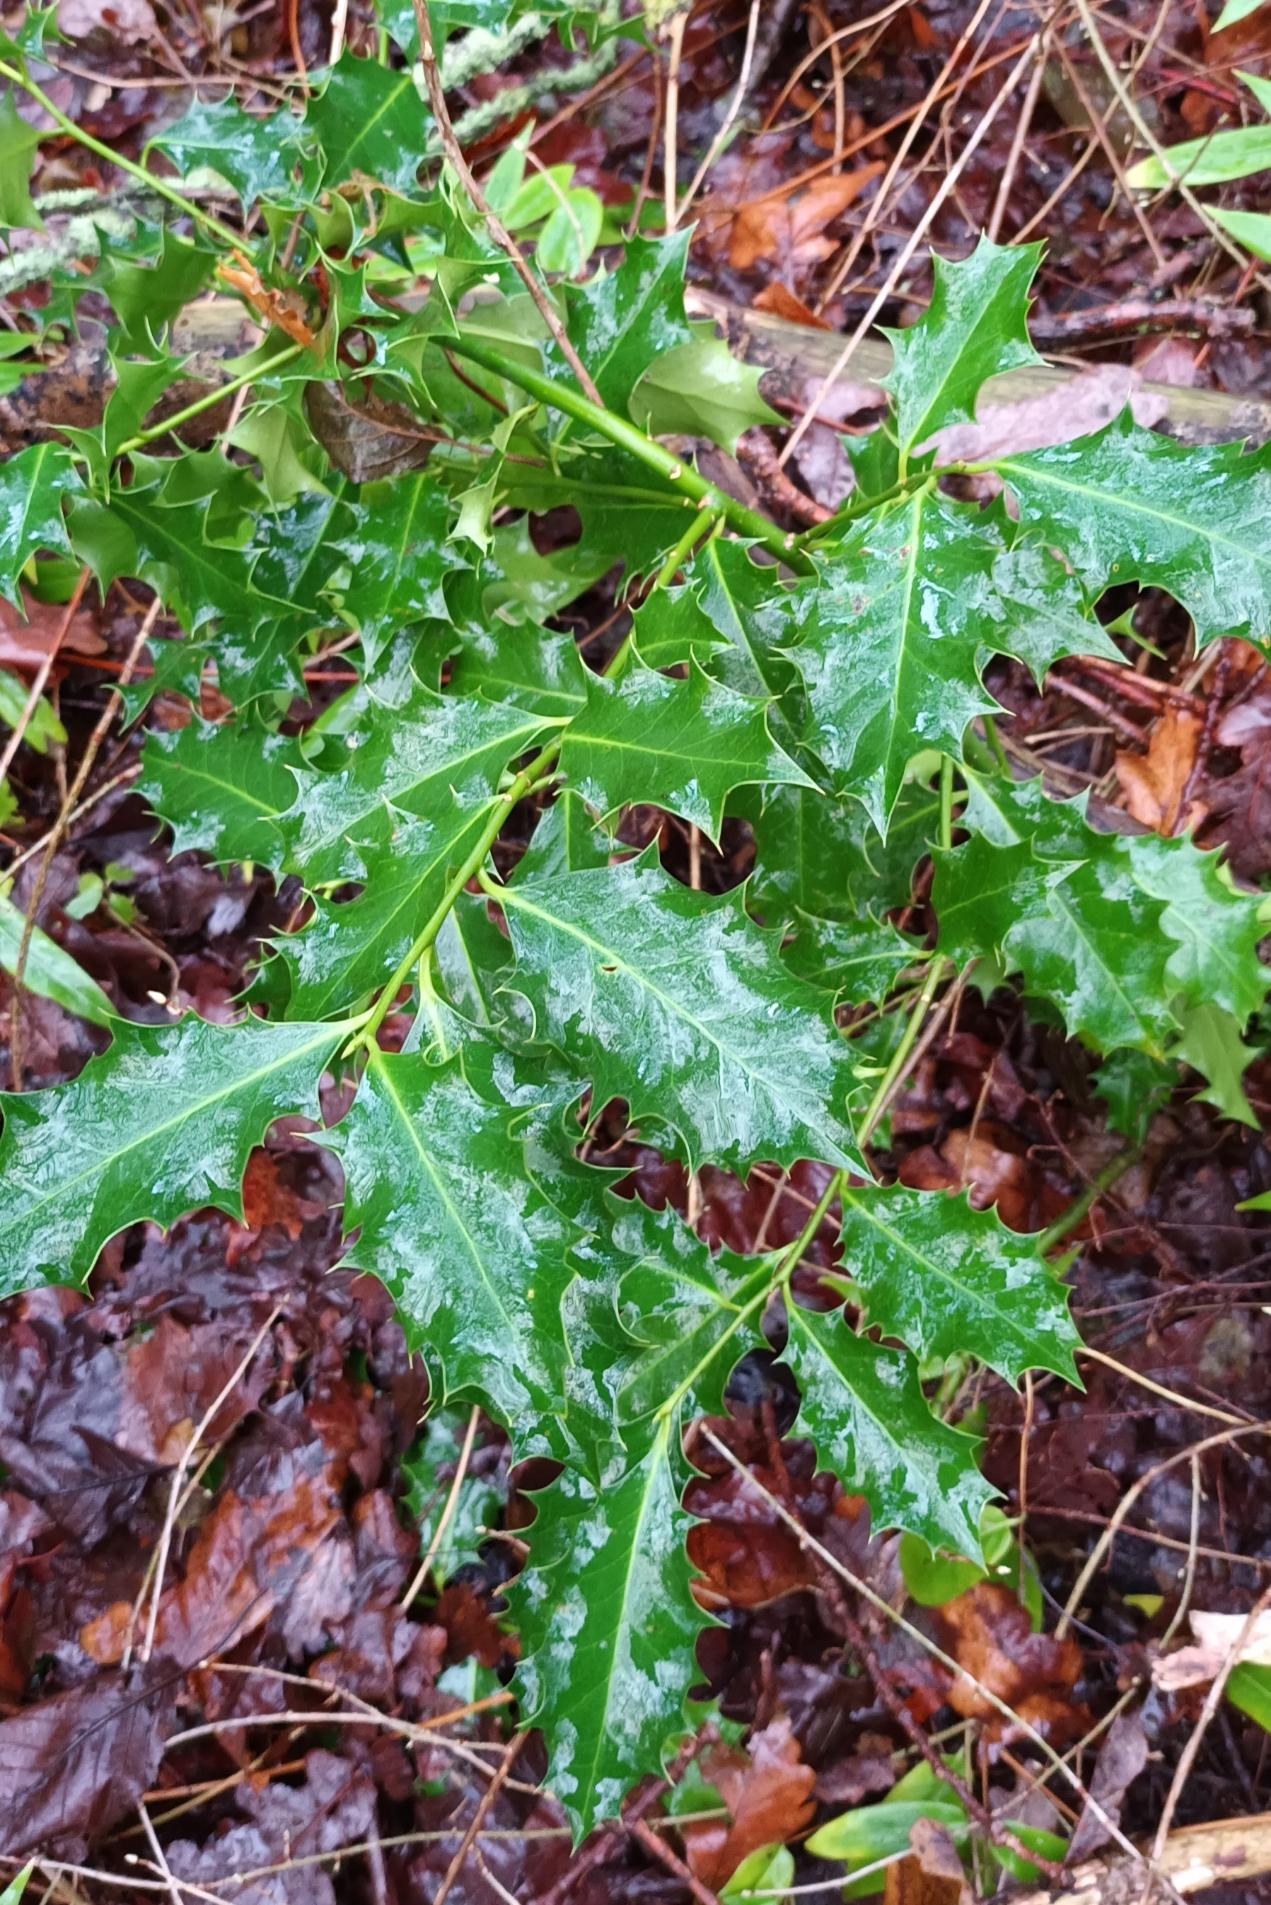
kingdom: Plantae
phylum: Tracheophyta
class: Magnoliopsida
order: Aquifoliales
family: Aquifoliaceae
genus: Ilex
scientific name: Ilex aquifolium
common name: Kristtorn
